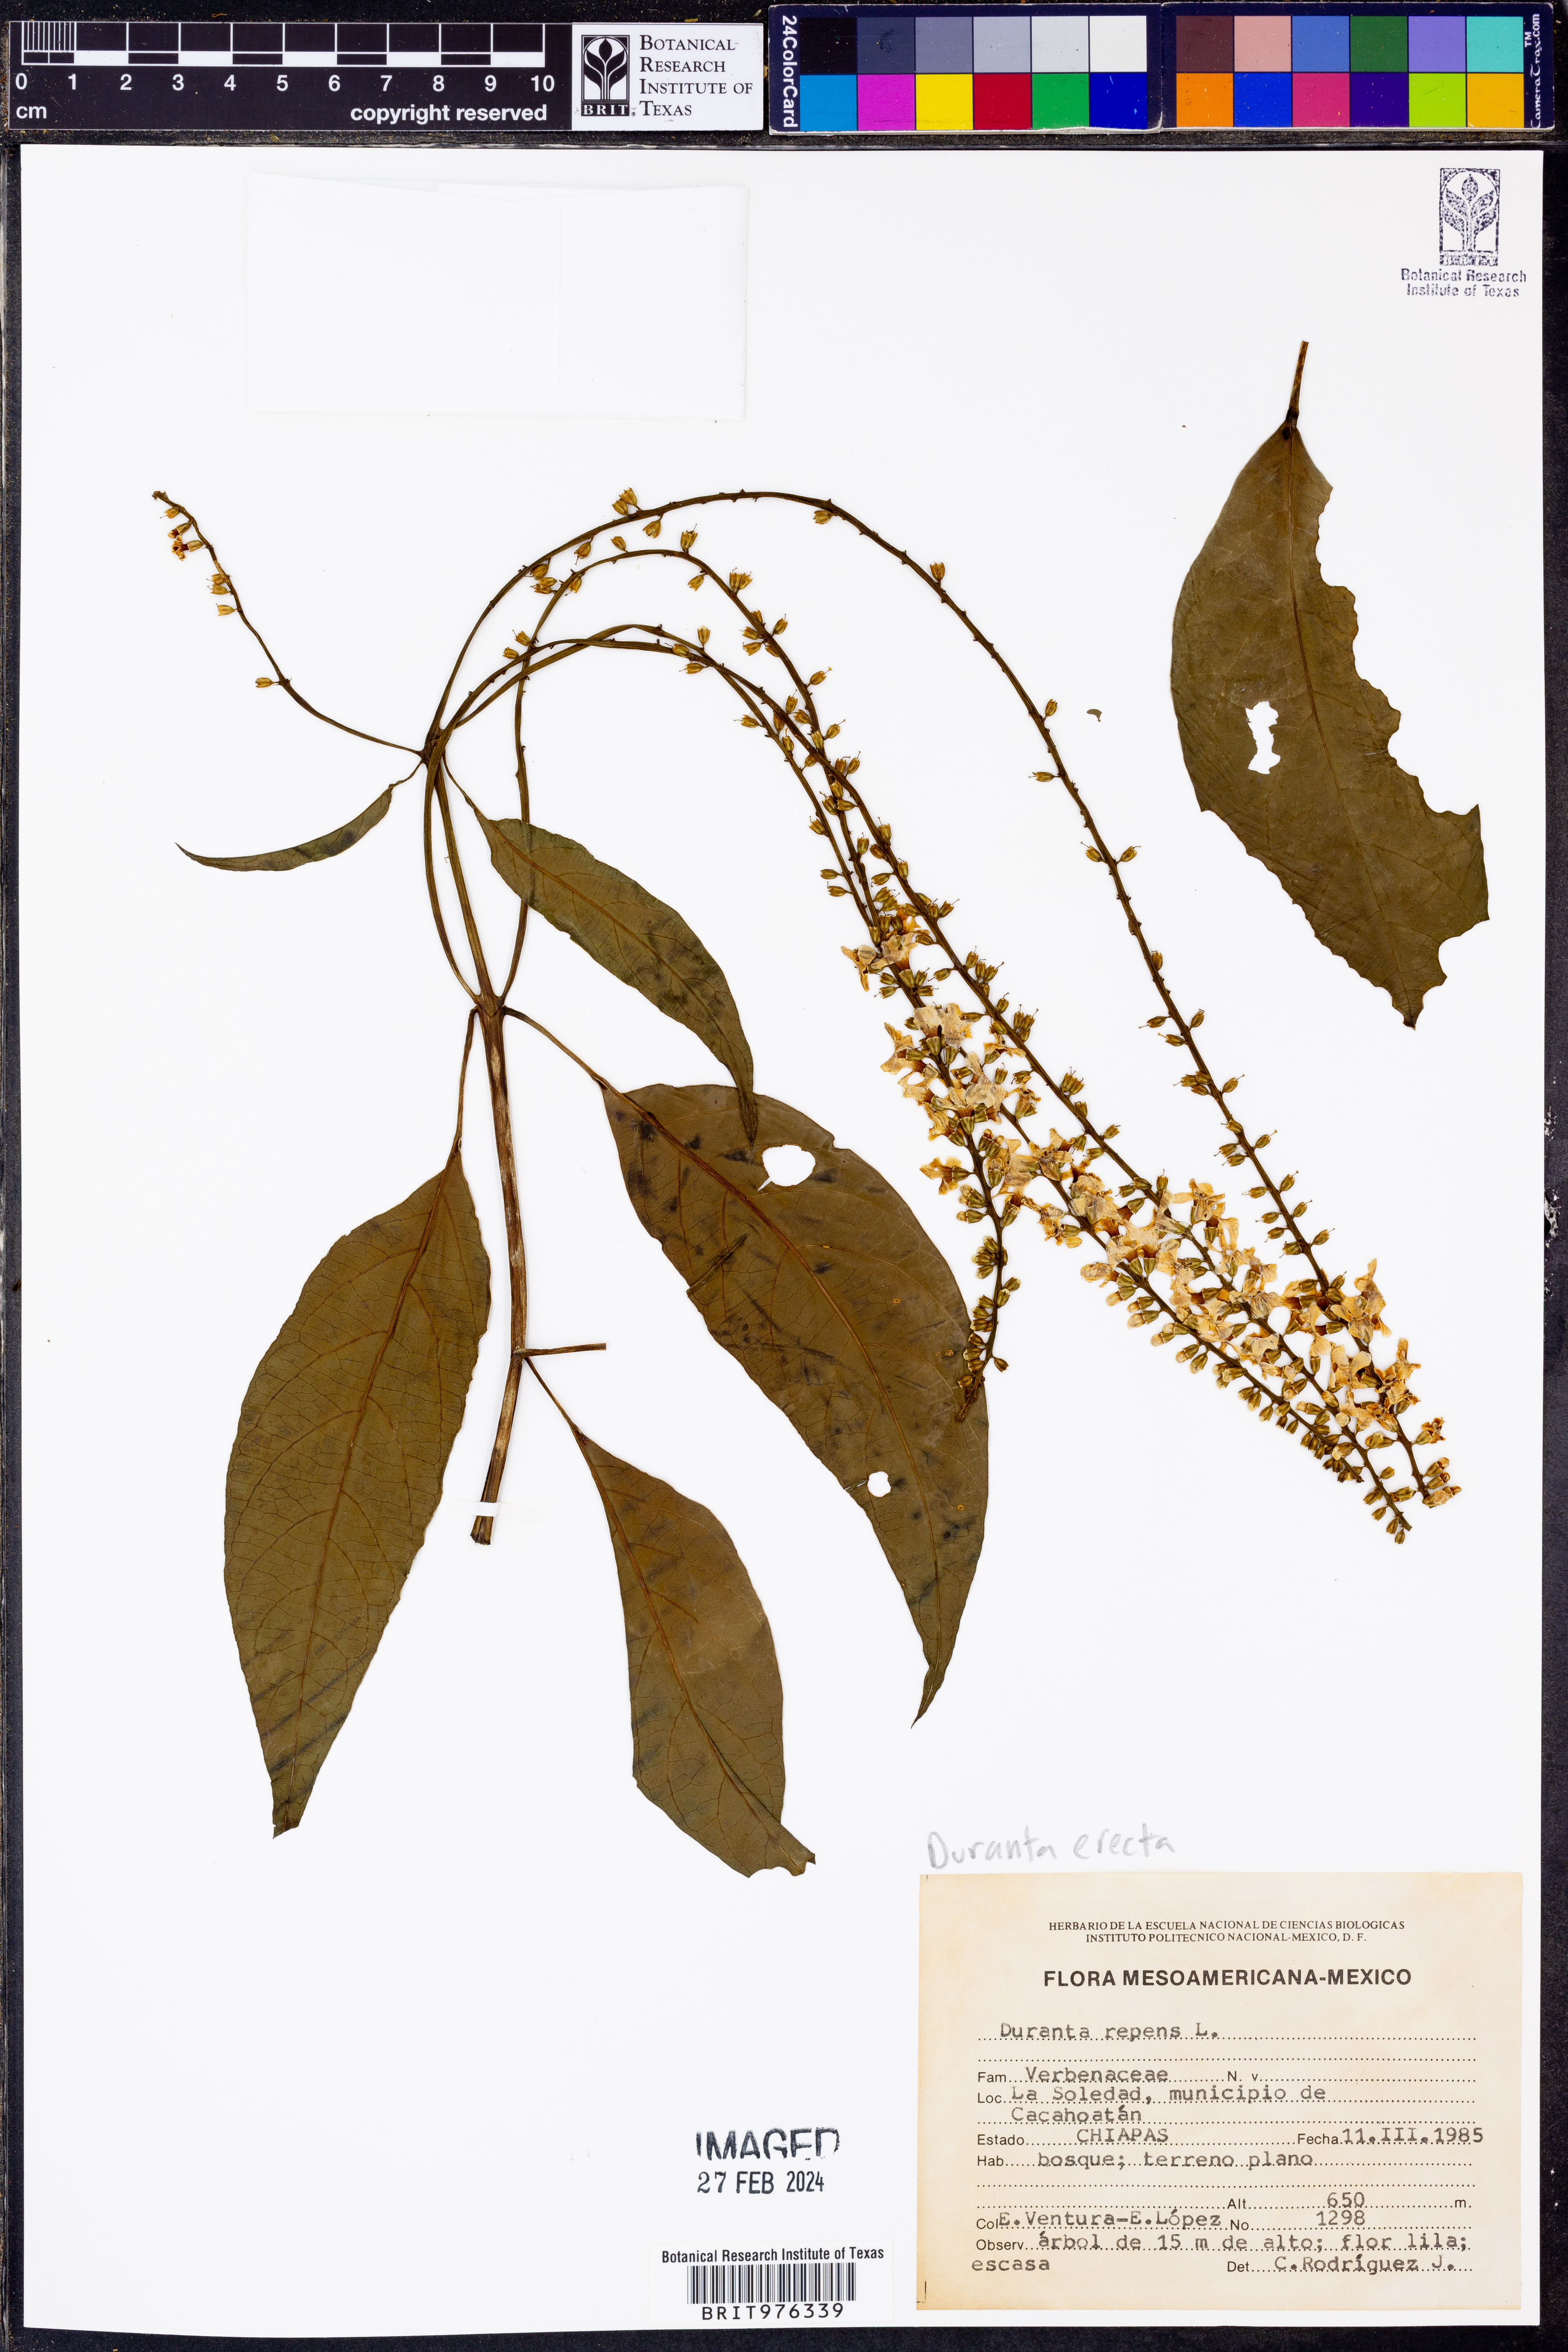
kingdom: Plantae
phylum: Tracheophyta
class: Magnoliopsida
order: Lamiales
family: Verbenaceae
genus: Duranta
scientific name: Duranta
